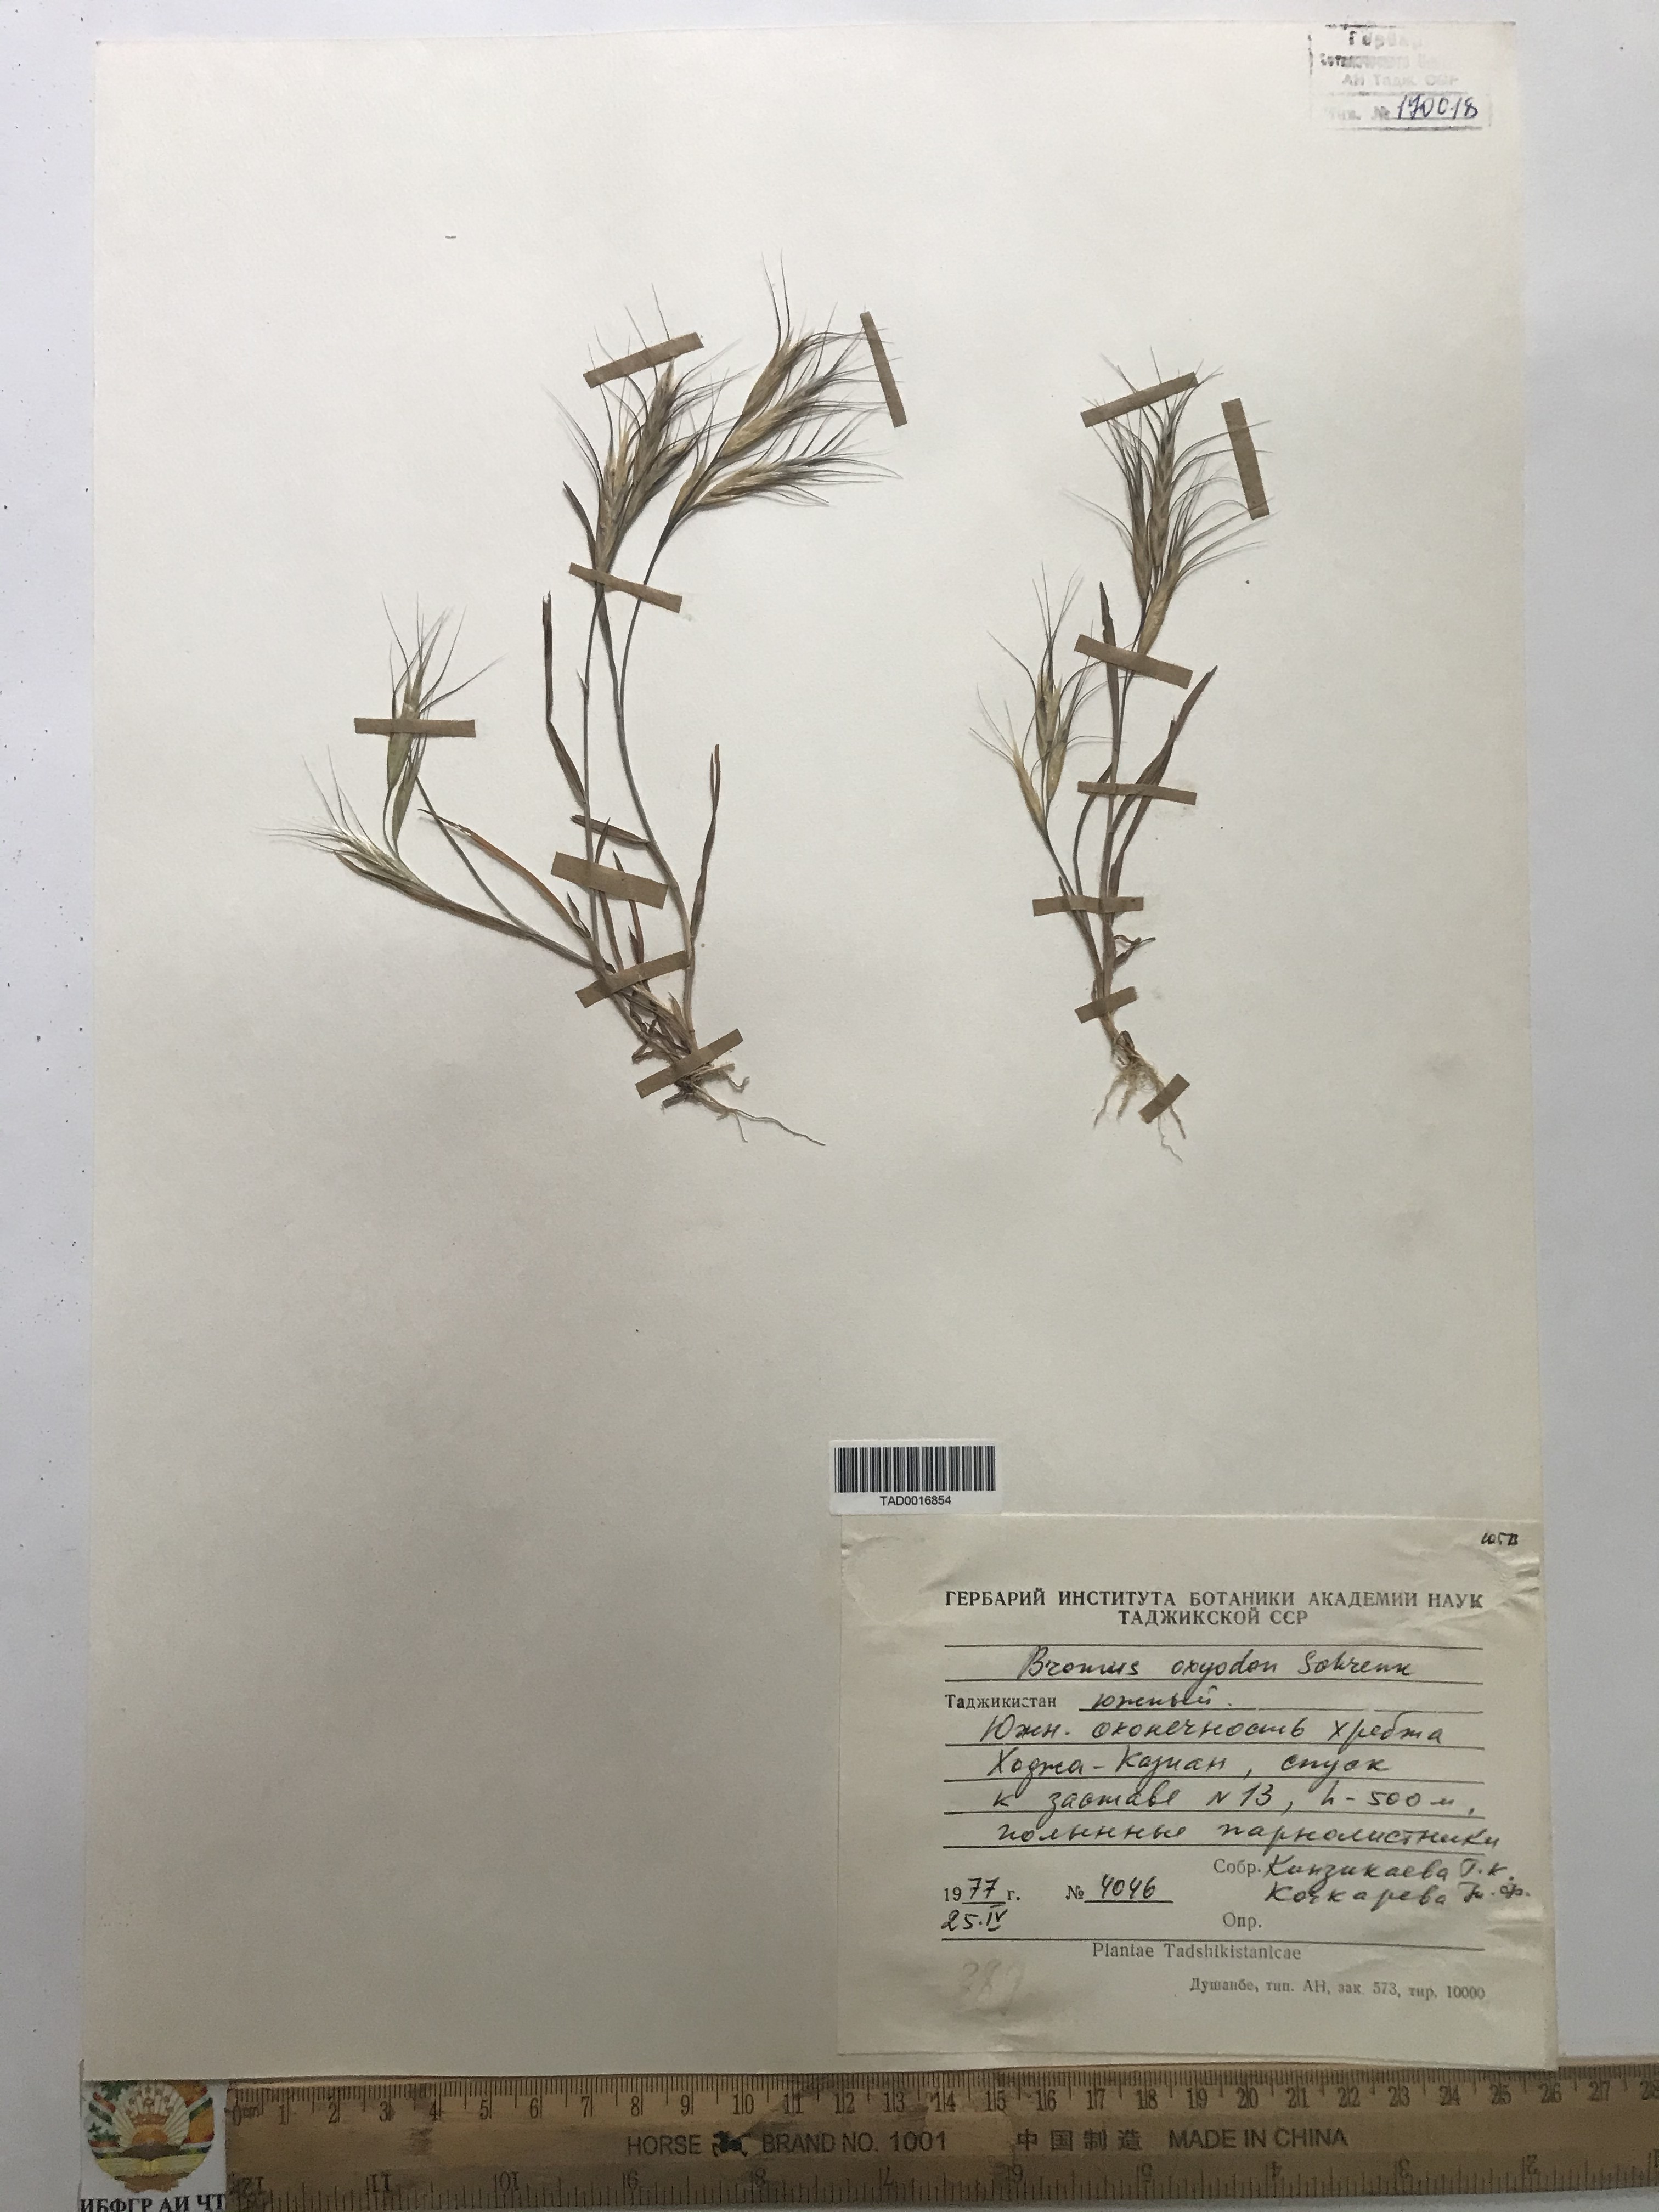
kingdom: Plantae
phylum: Tracheophyta
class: Liliopsida
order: Poales
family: Poaceae
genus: Bromus
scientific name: Bromus oxyodon
